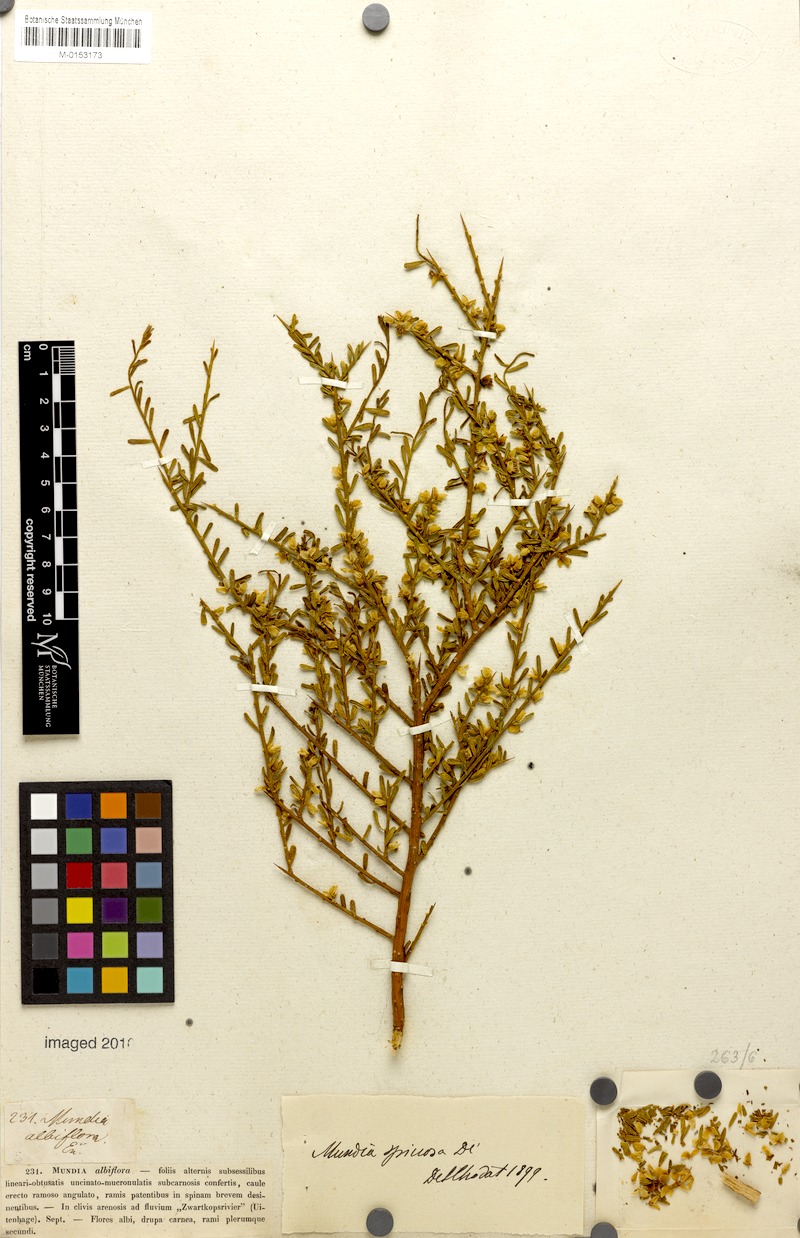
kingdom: Plantae
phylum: Tracheophyta
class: Magnoliopsida
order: Fabales
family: Polygalaceae
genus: Mundtia
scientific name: Mundtia spinosa
